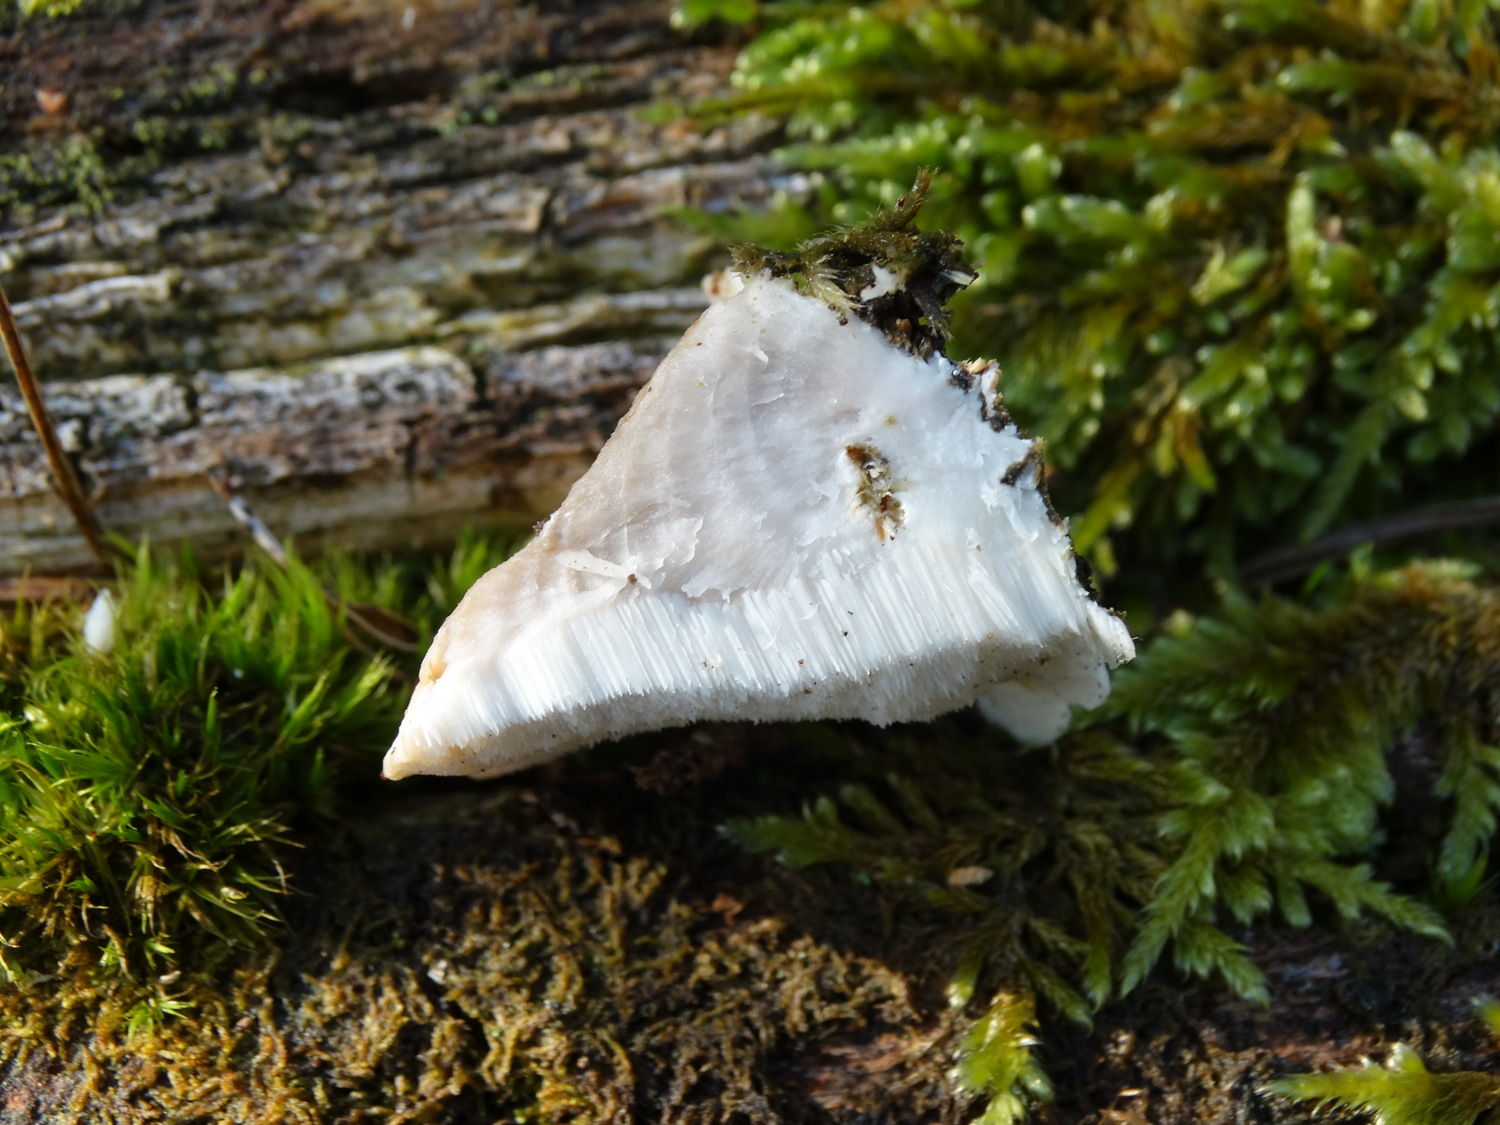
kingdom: Fungi
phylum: Basidiomycota
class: Agaricomycetes
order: Polyporales
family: Dacryobolaceae
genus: Postia
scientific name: Postia tephroleuca
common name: grålig kødporesvamp
